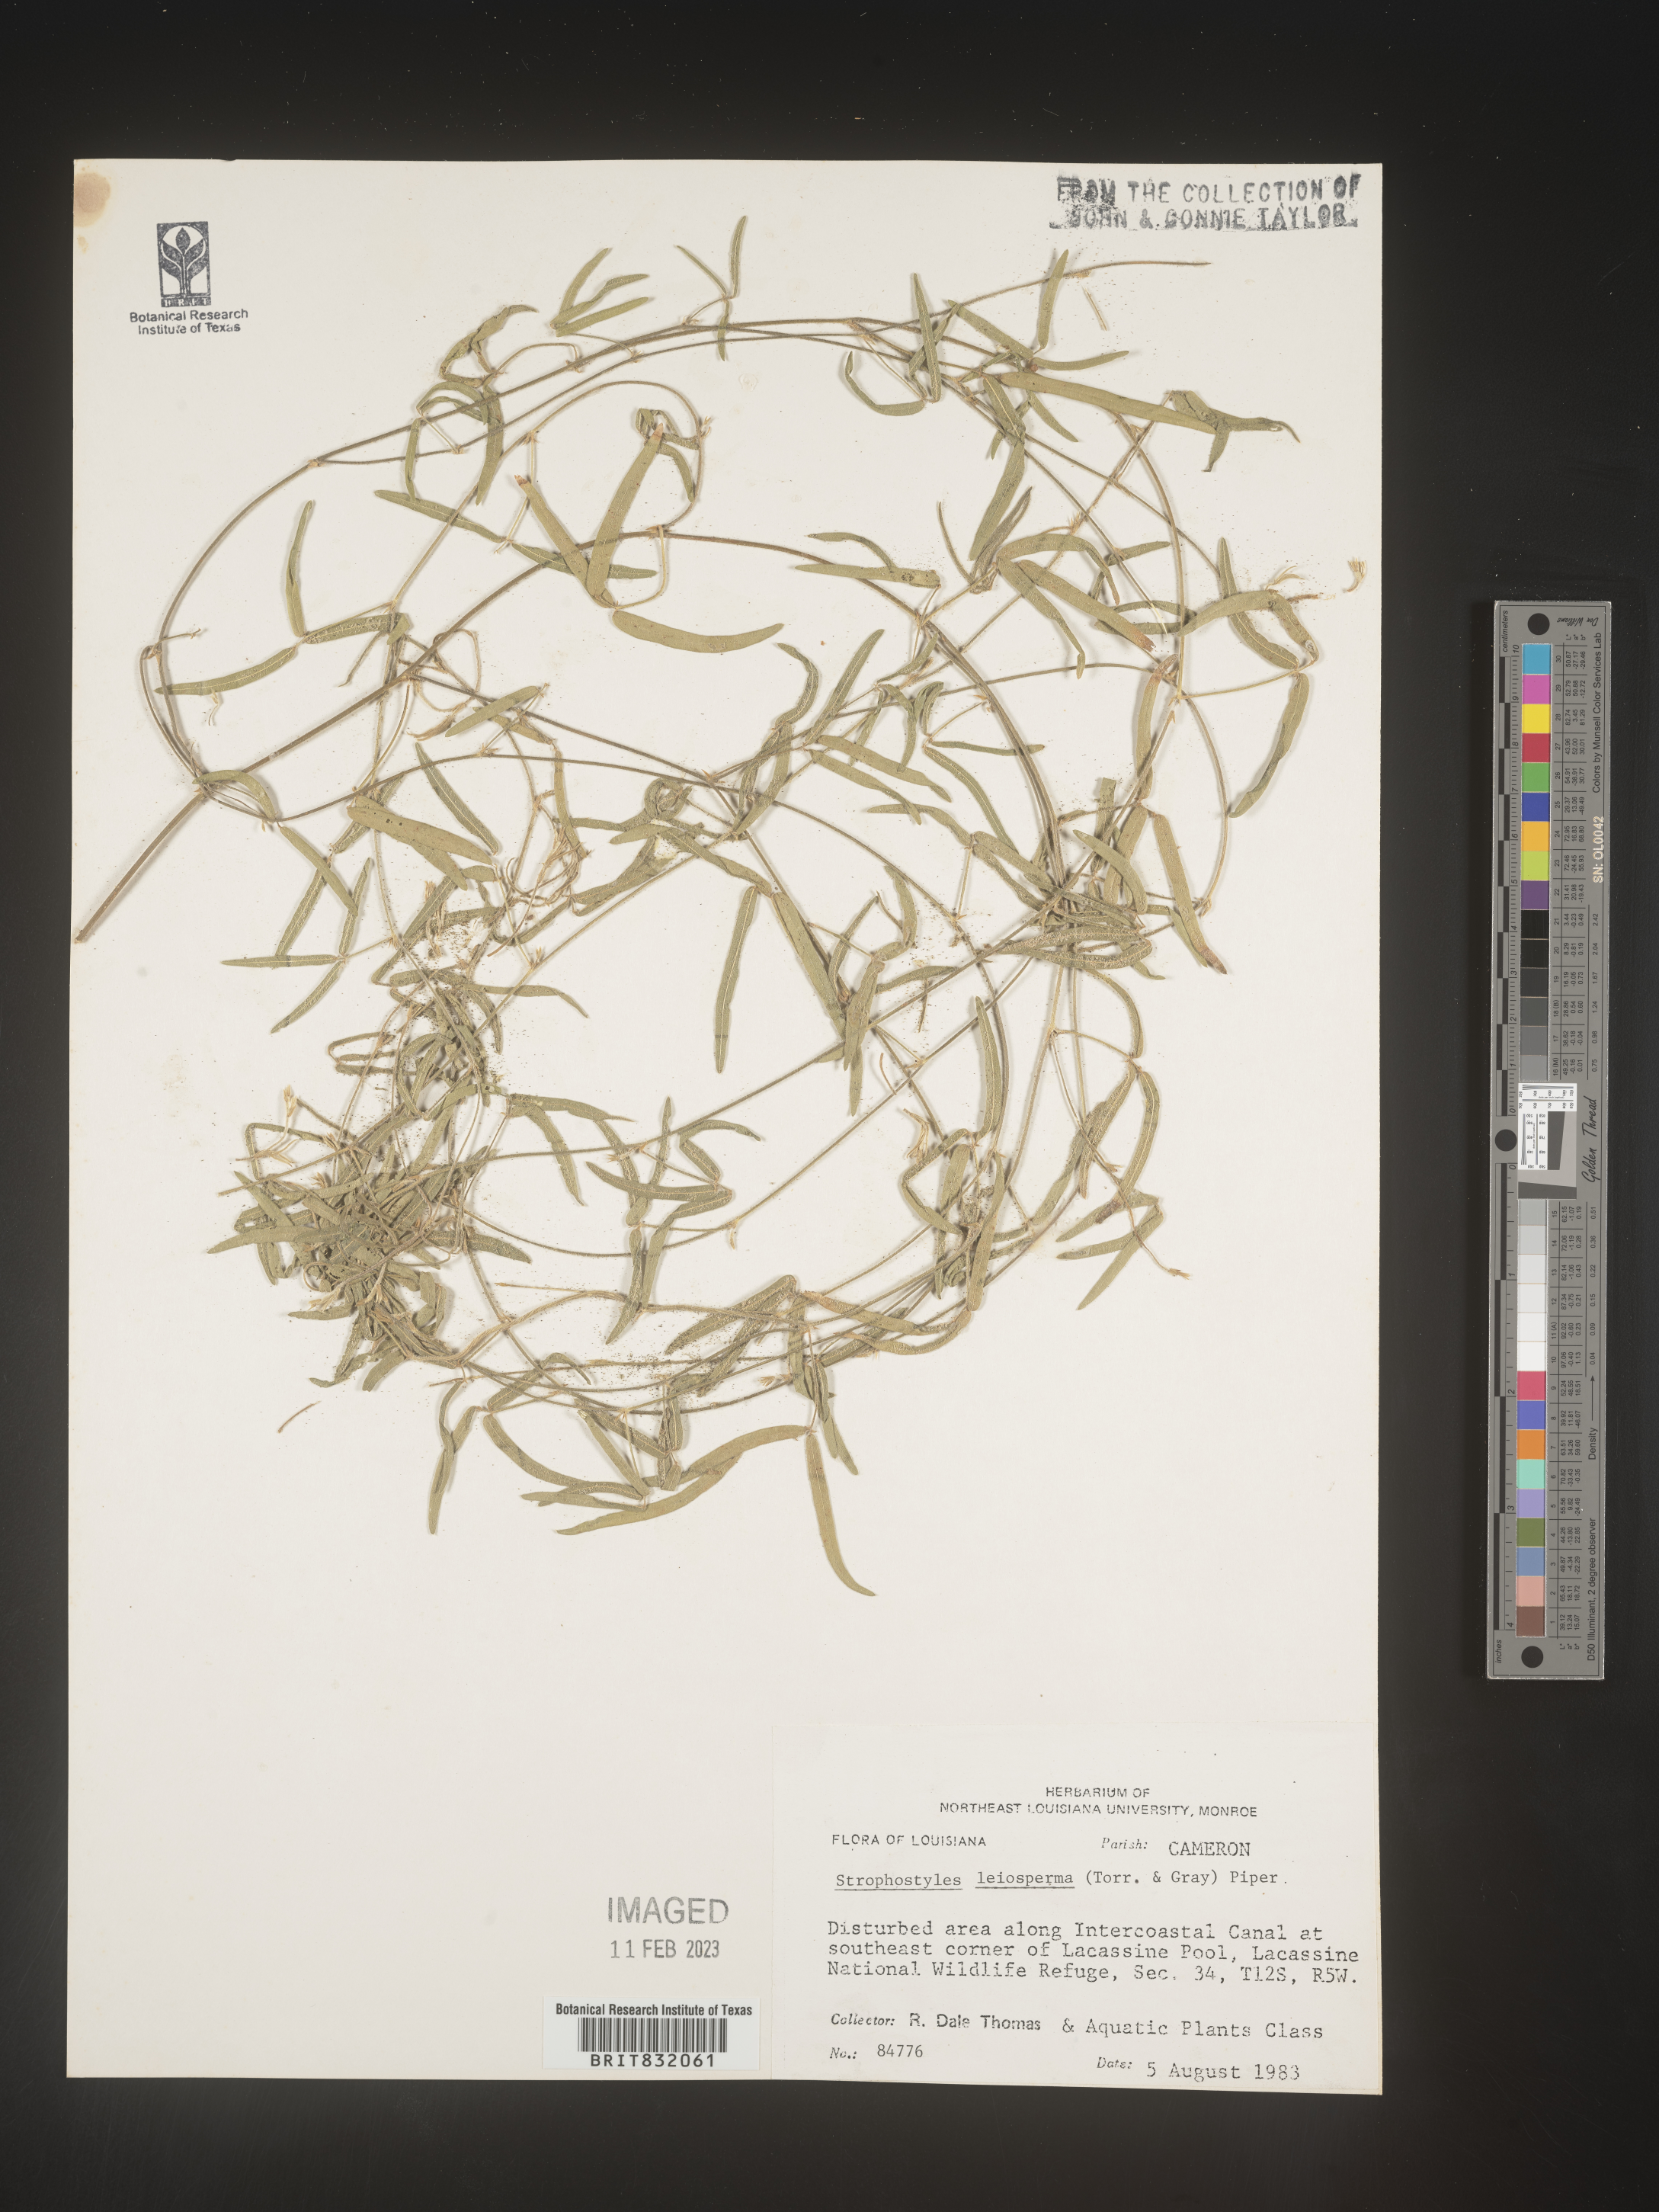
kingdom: Plantae
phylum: Tracheophyta
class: Magnoliopsida
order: Fabales
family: Fabaceae
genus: Strophostyles
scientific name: Strophostyles leiosperma
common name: Smooth-seed wild bean
